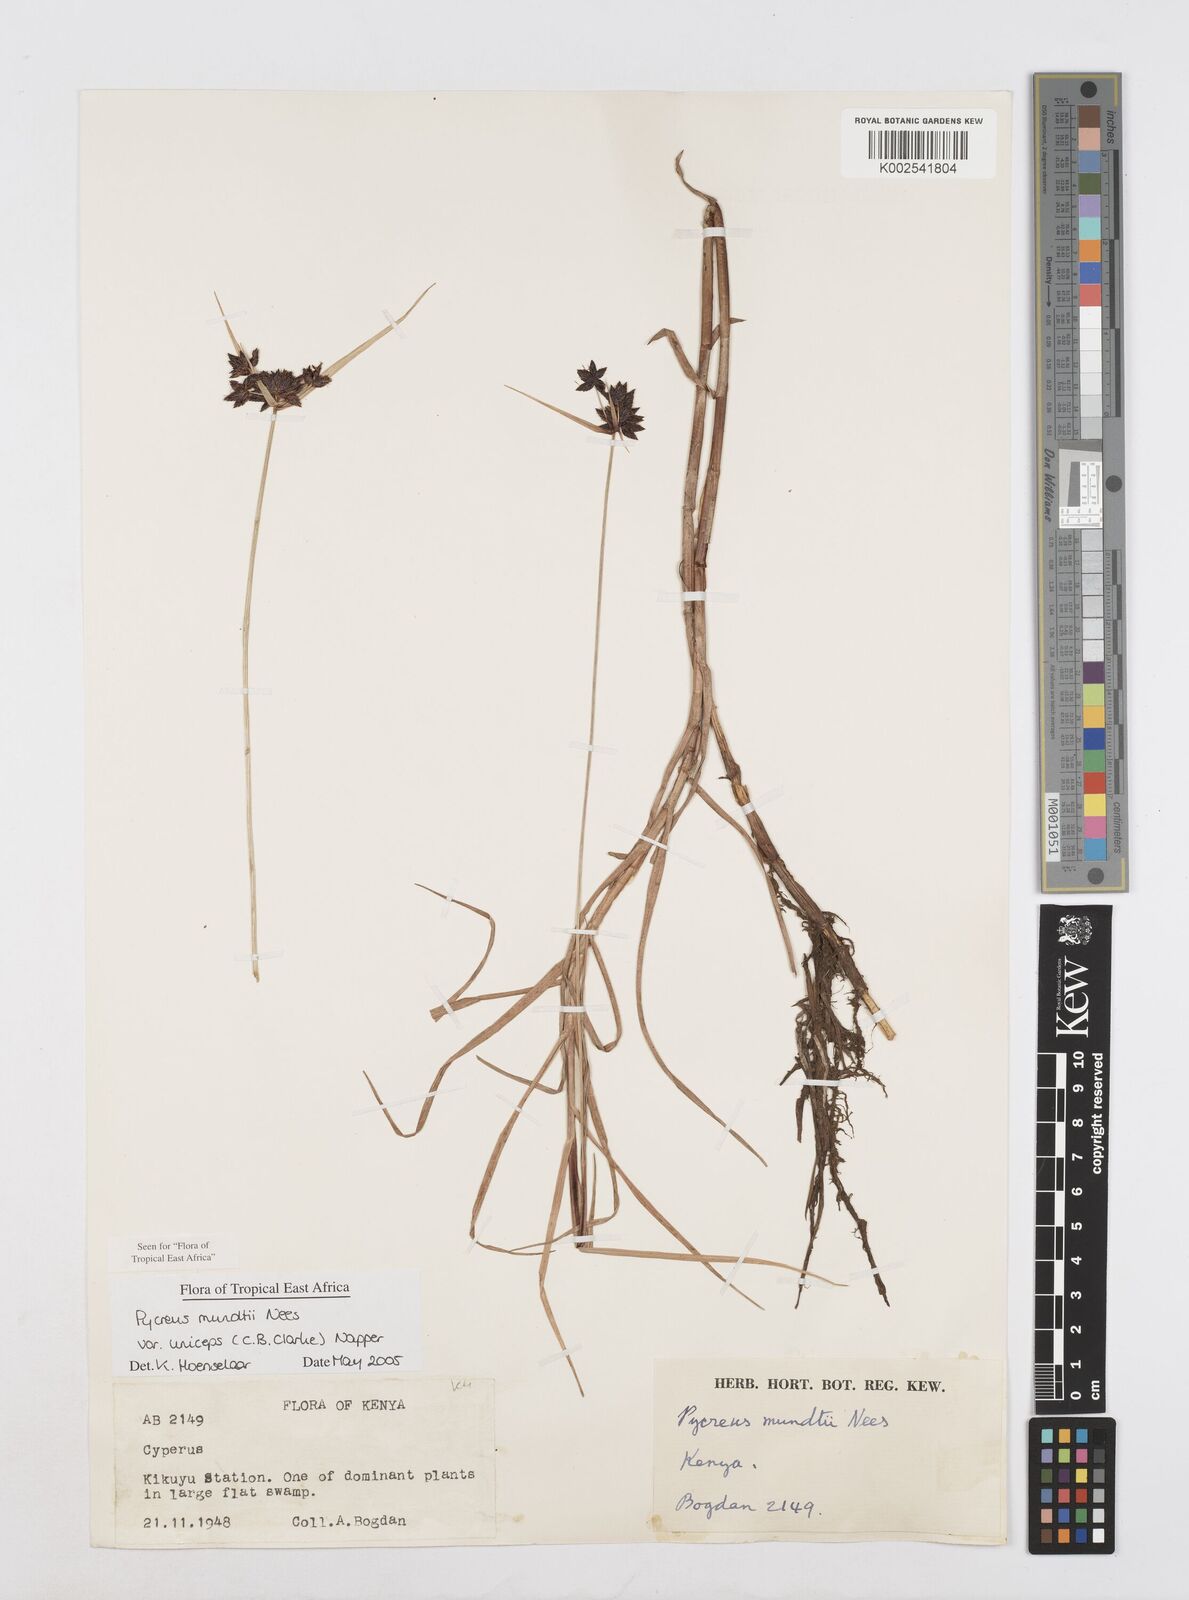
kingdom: Plantae
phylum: Tracheophyta
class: Liliopsida
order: Poales
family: Cyperaceae
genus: Cyperus
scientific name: Cyperus mundii
